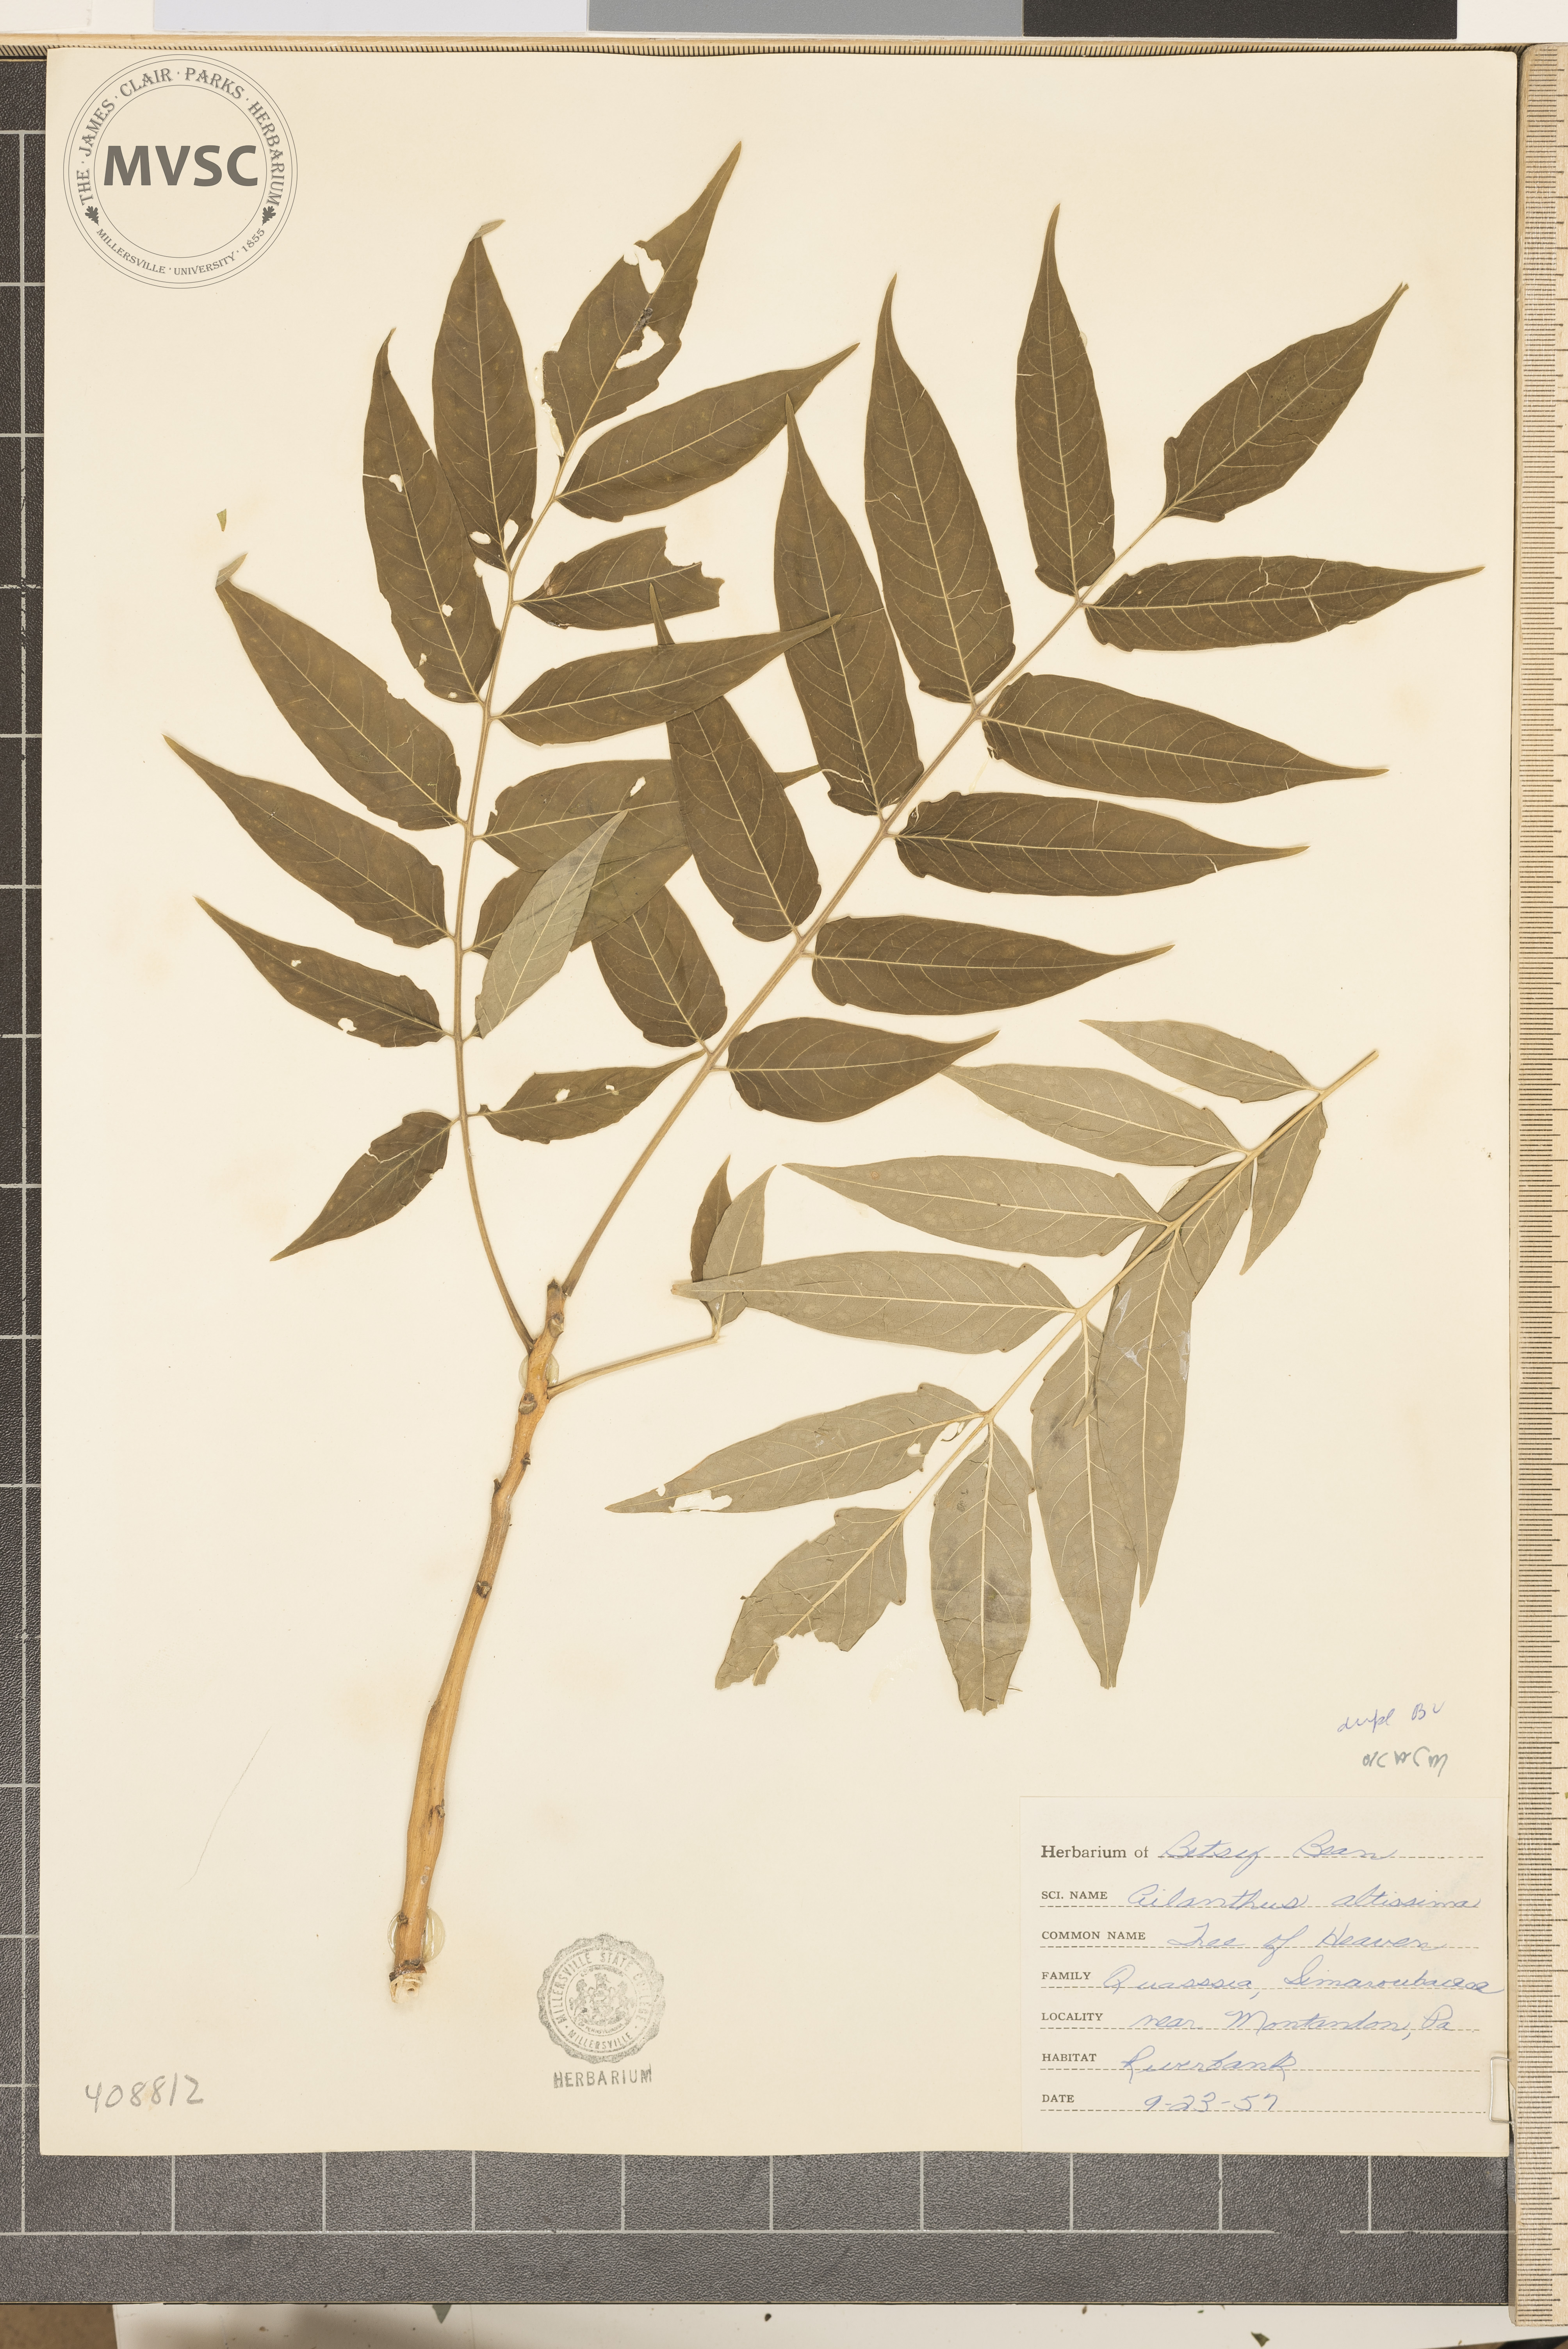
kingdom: Plantae
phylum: Tracheophyta
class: Magnoliopsida
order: Sapindales
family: Simaroubaceae
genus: Ailanthus
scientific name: Ailanthus altissima
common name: tree-of-heaven
